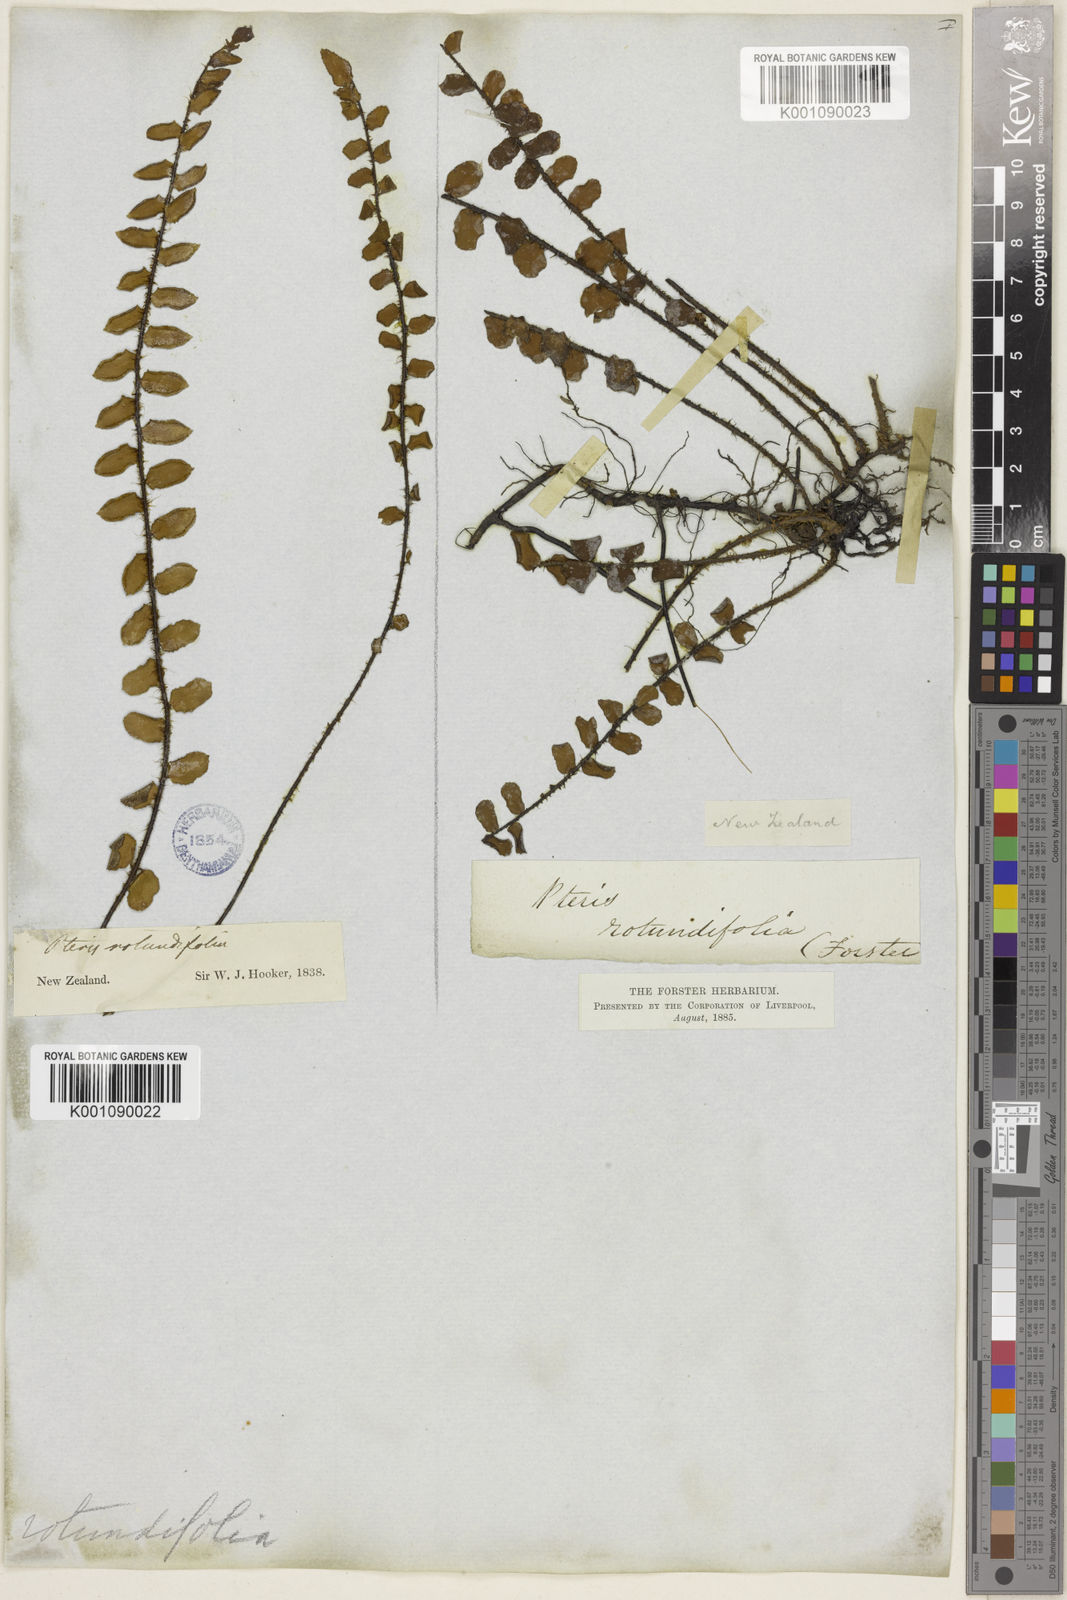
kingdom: Plantae
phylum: Tracheophyta
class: Polypodiopsida
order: Polypodiales
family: Pteridaceae
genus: Pellaea
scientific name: Pellaea rotundifolia
